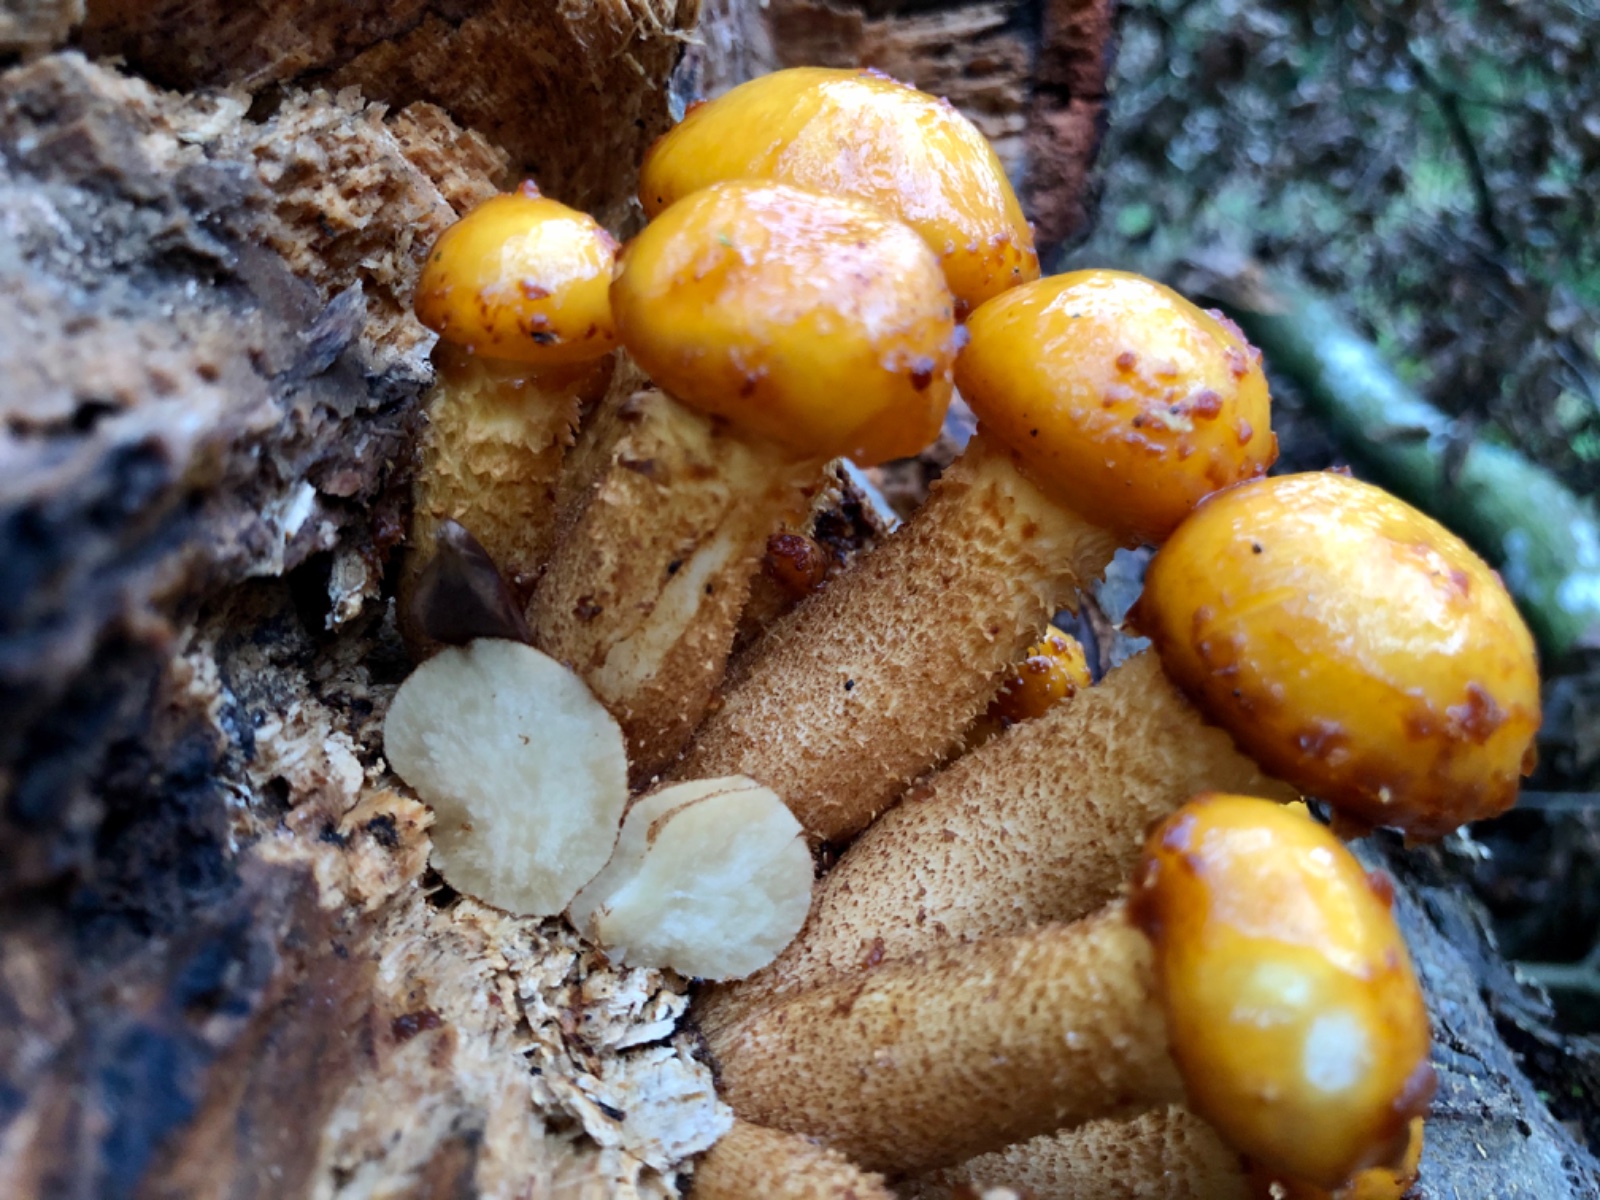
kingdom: Fungi
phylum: Basidiomycota
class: Agaricomycetes
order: Agaricales
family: Strophariaceae
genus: Pholiota
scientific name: Pholiota adiposa
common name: højtsiddende skælhat
